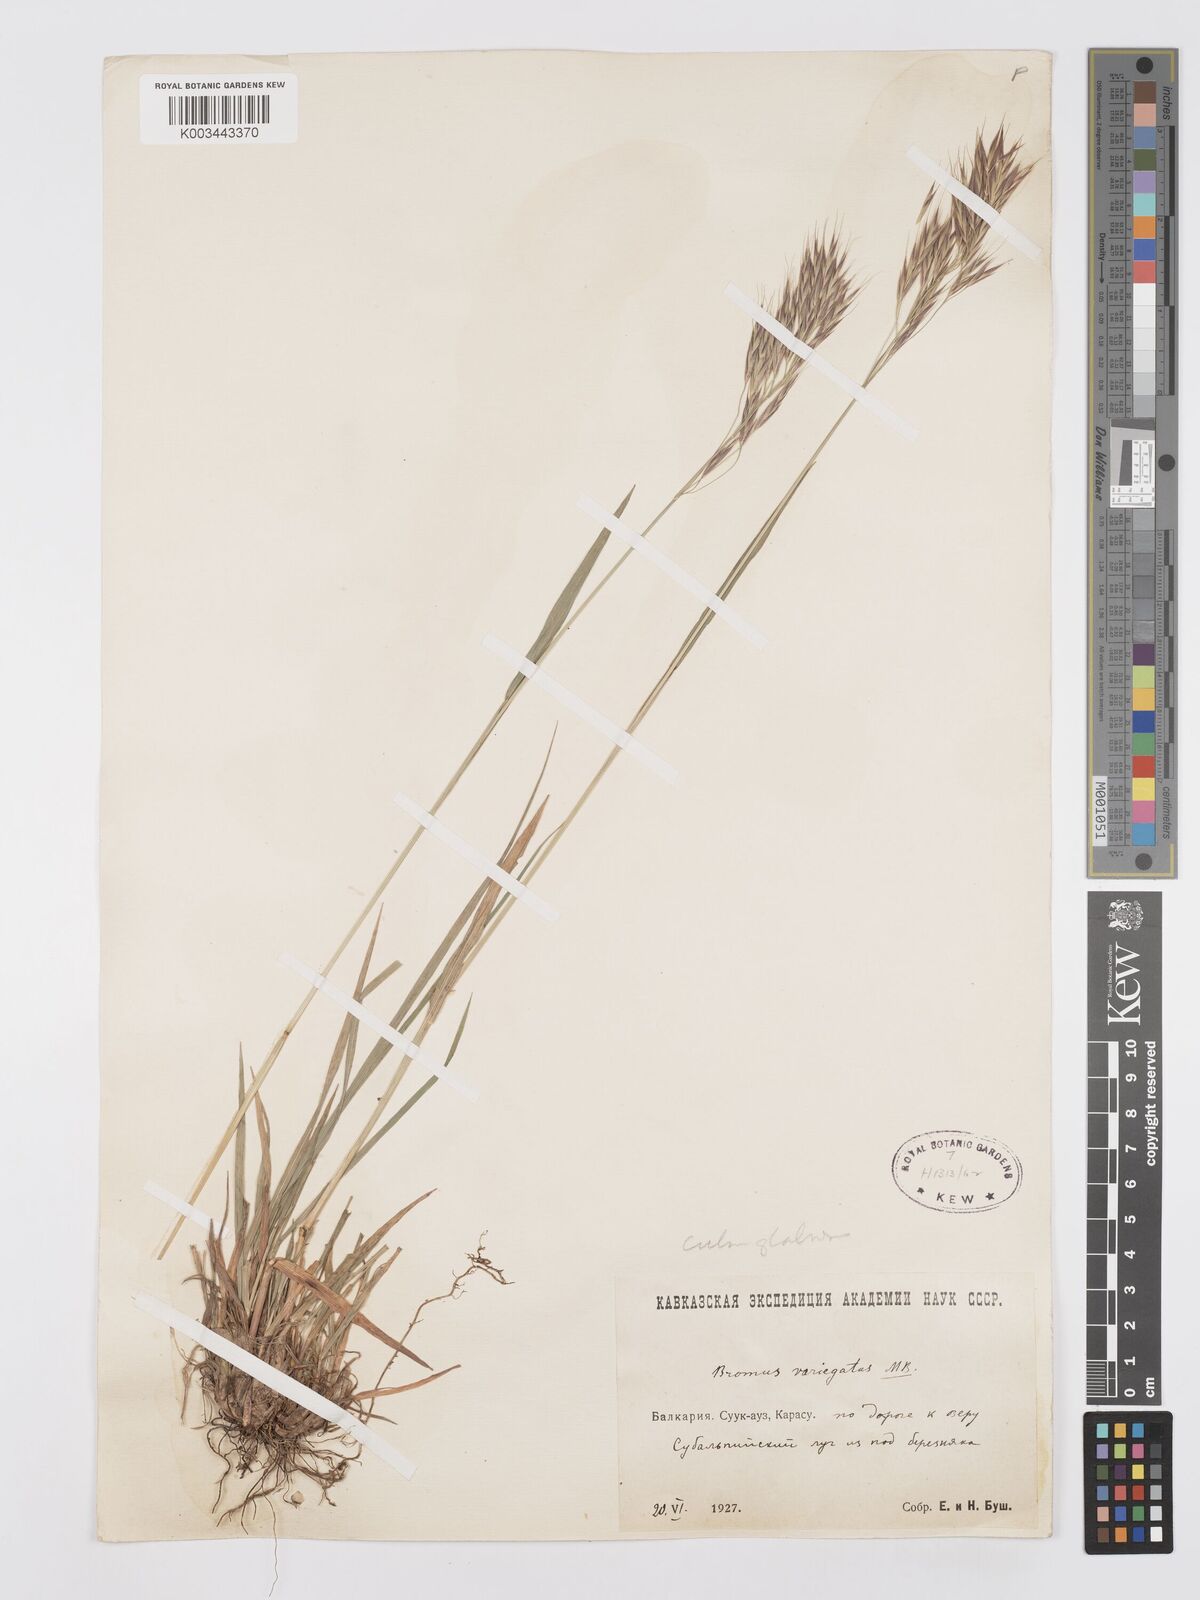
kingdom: Plantae
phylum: Tracheophyta
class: Liliopsida
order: Poales
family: Poaceae
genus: Bromus
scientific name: Bromus variegatus
